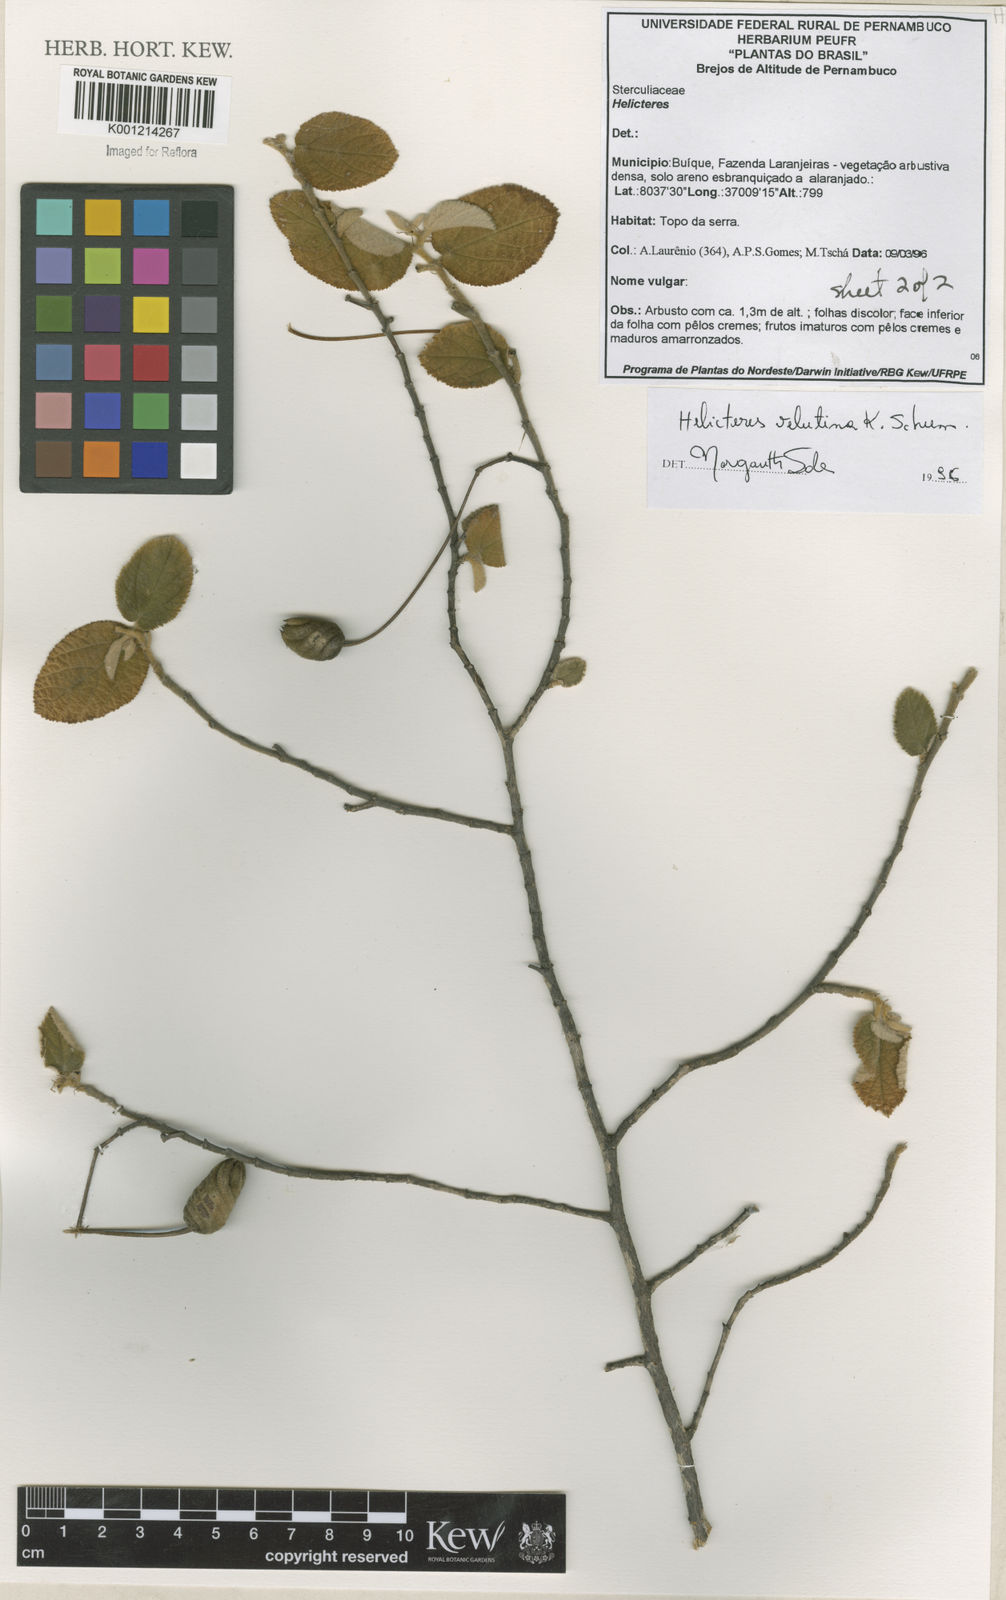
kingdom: Plantae
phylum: Tracheophyta
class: Magnoliopsida
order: Malvales
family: Malvaceae
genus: Helicteres
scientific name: Helicteres velutina
